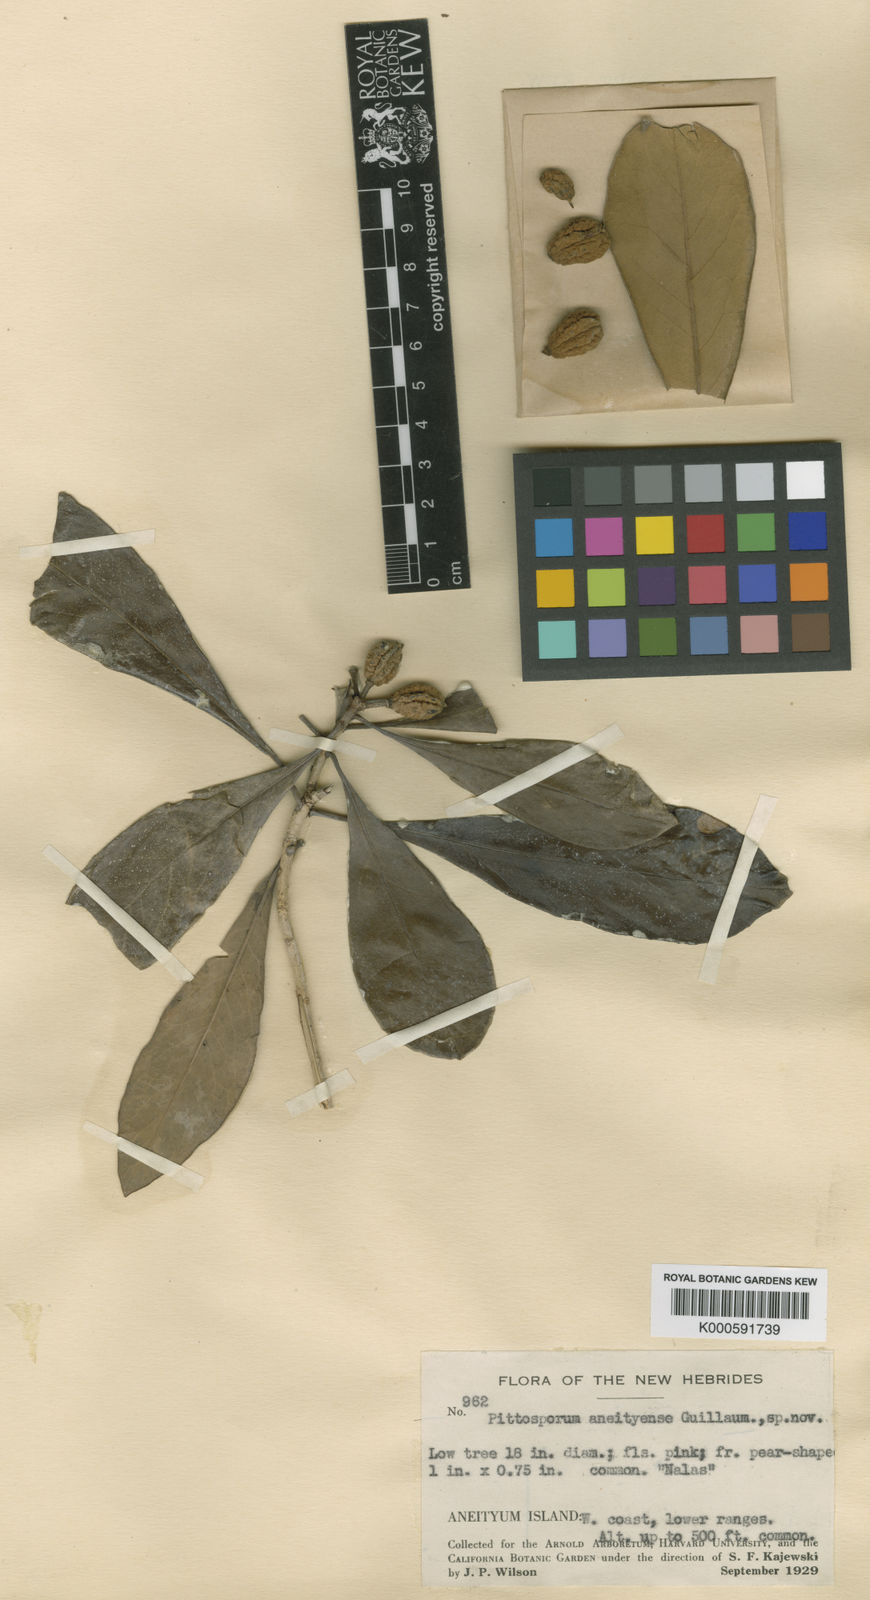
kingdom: Plantae
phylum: Tracheophyta
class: Magnoliopsida
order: Apiales
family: Pittosporaceae
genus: Pittosporum
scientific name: Pittosporum aneityense
